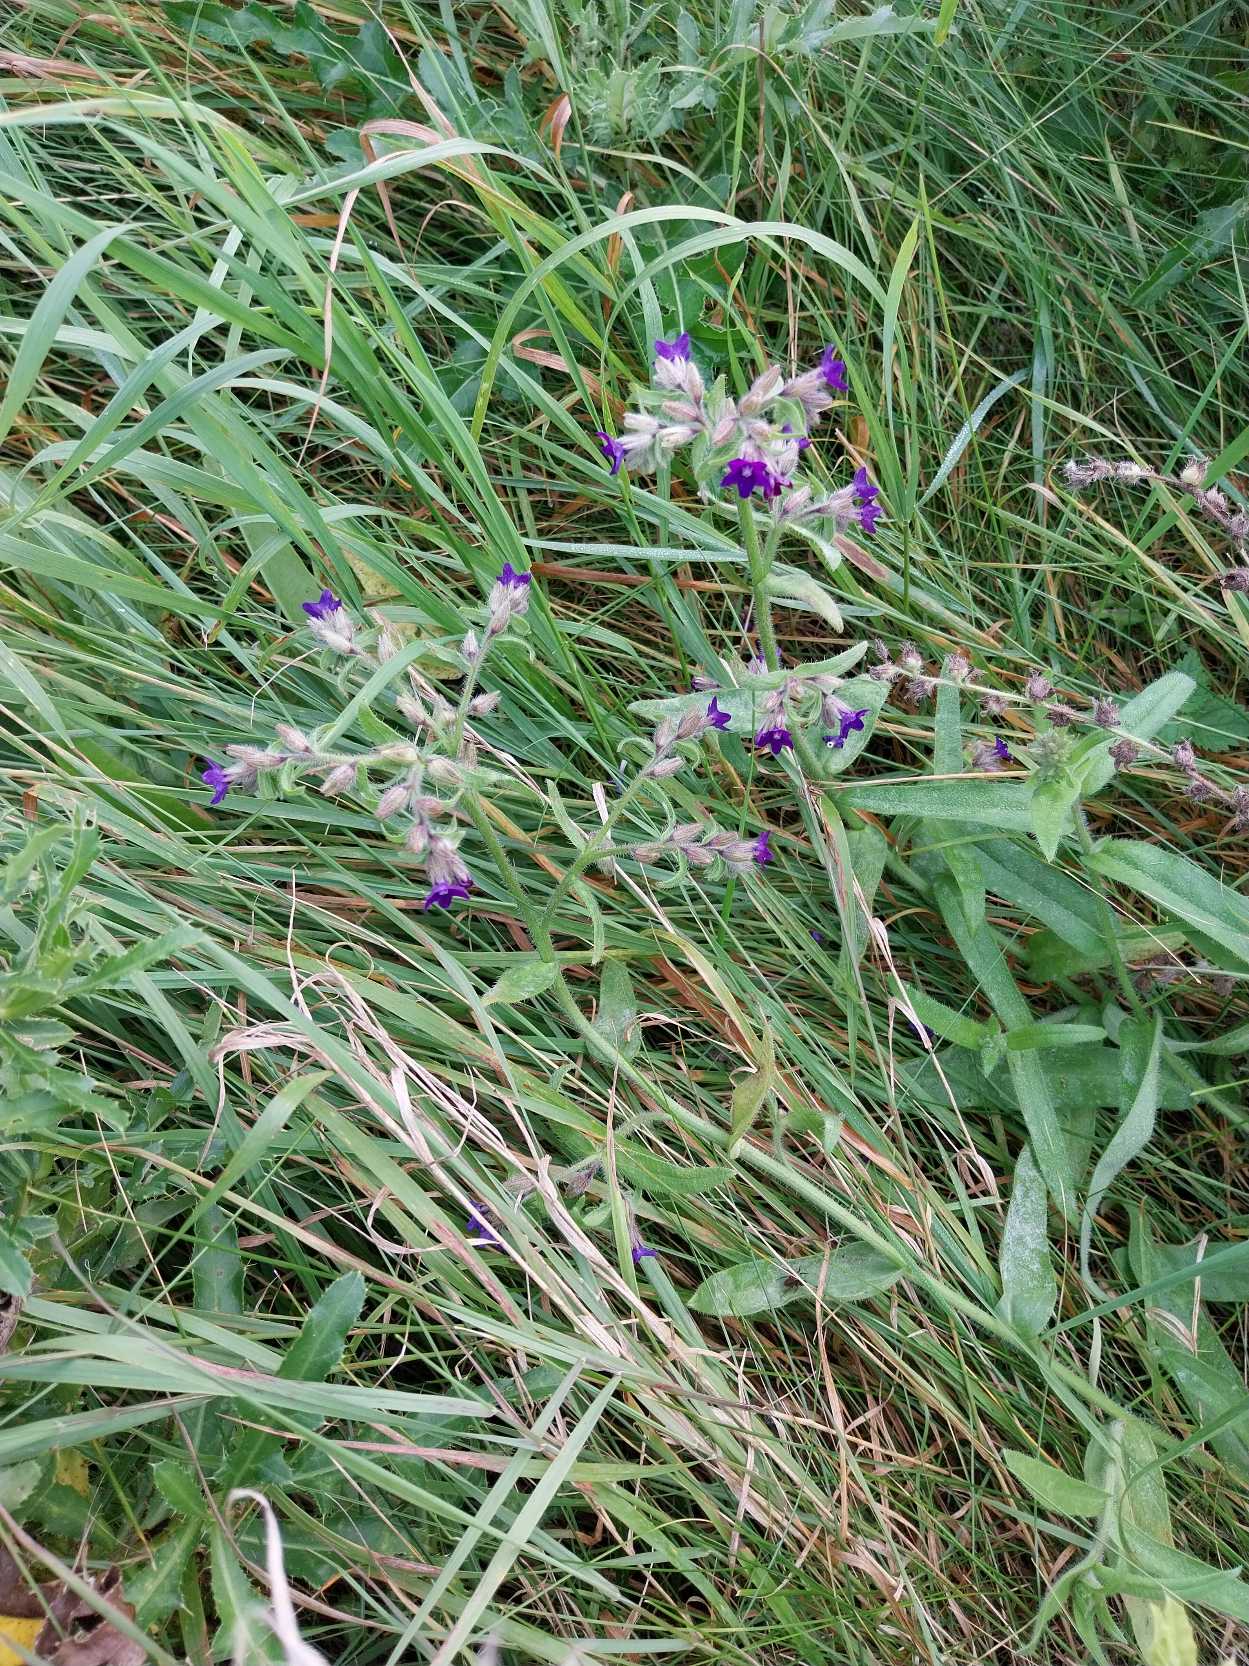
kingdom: Plantae
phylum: Tracheophyta
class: Magnoliopsida
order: Boraginales
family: Boraginaceae
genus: Anchusa
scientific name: Anchusa officinalis
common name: Læge-oksetunge
